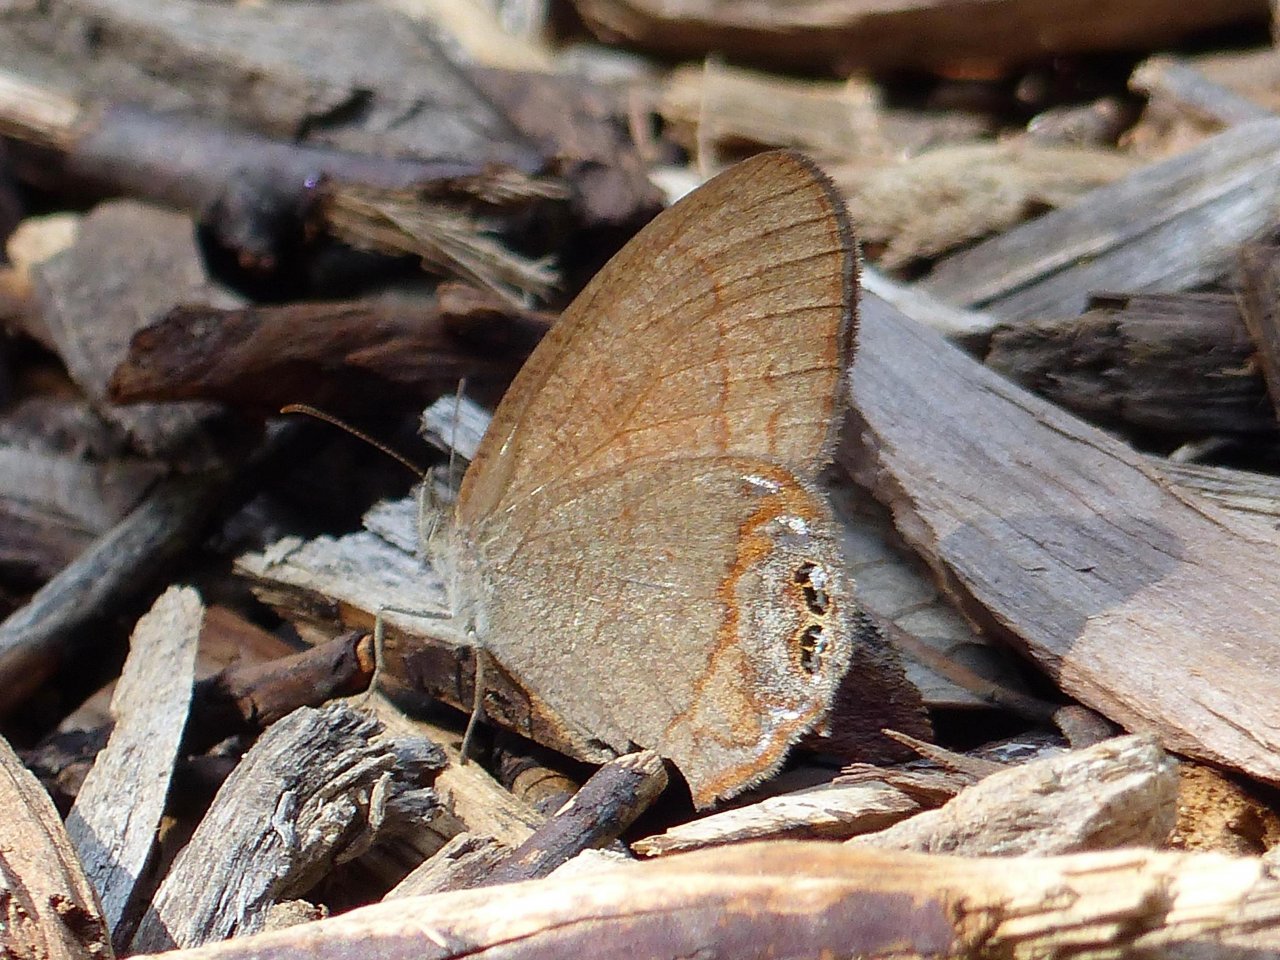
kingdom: Animalia
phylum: Arthropoda
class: Insecta
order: Lepidoptera
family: Nymphalidae
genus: Euptychia
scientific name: Euptychia pyracmon
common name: Nabokov's Satyr
